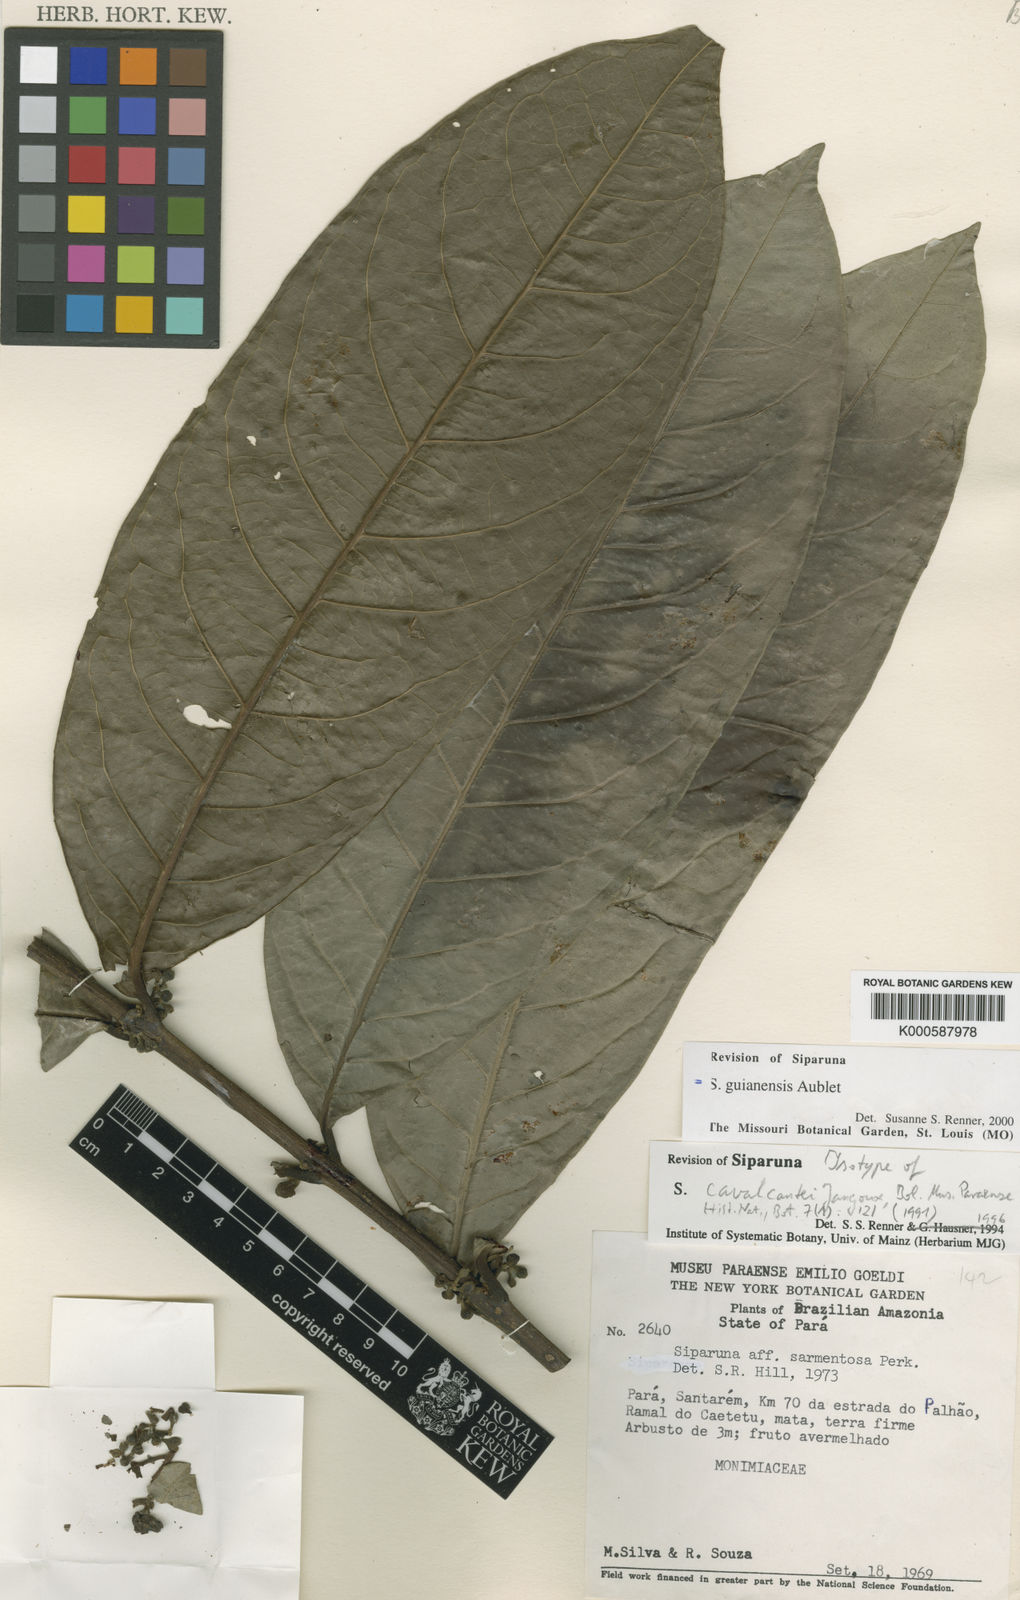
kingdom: Plantae
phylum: Tracheophyta
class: Magnoliopsida
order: Laurales
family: Siparunaceae
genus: Siparuna
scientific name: Siparuna guianensis
